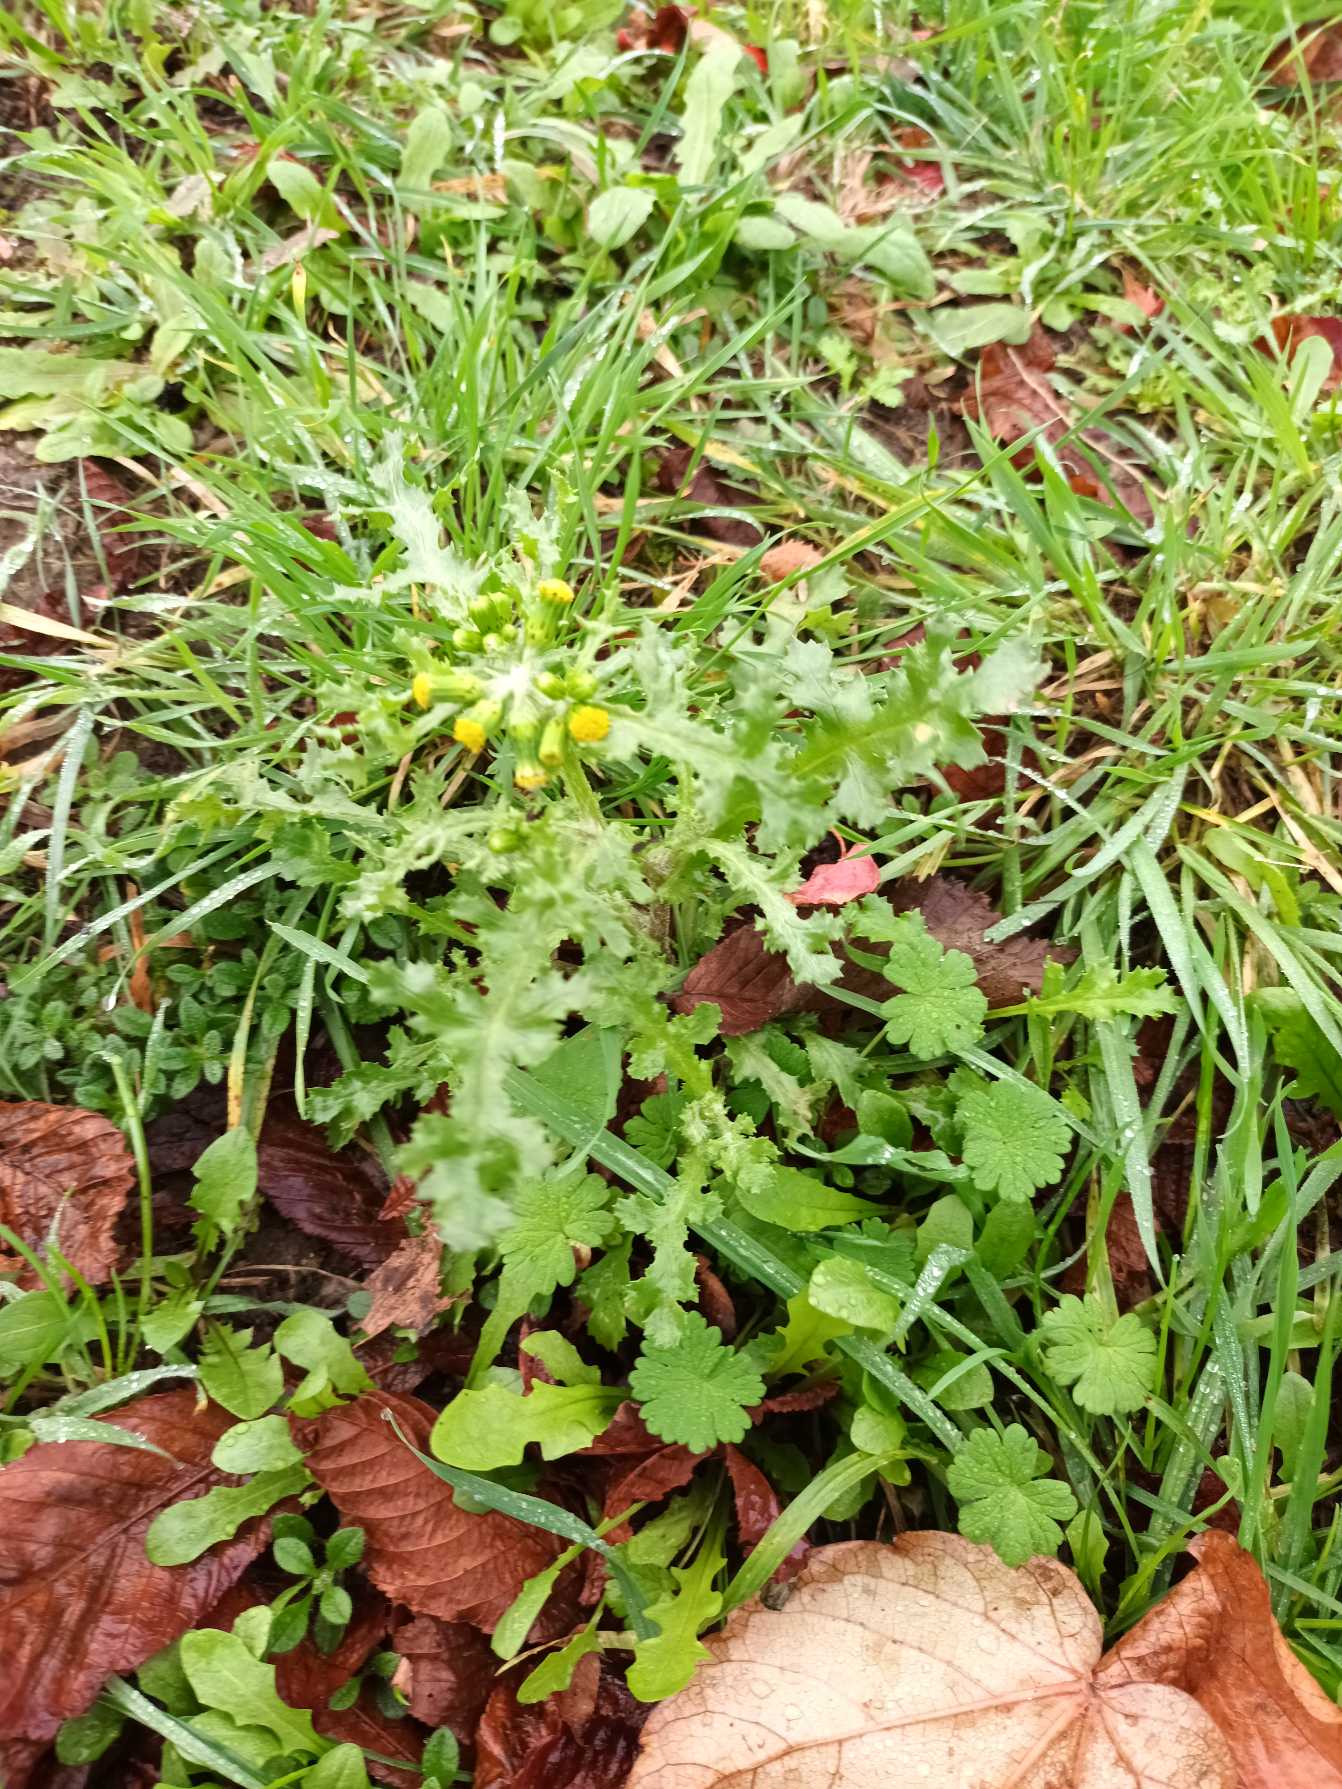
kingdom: Plantae
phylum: Tracheophyta
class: Magnoliopsida
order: Asterales
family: Asteraceae
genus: Senecio
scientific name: Senecio vulgaris
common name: Almindelig brandbæger
